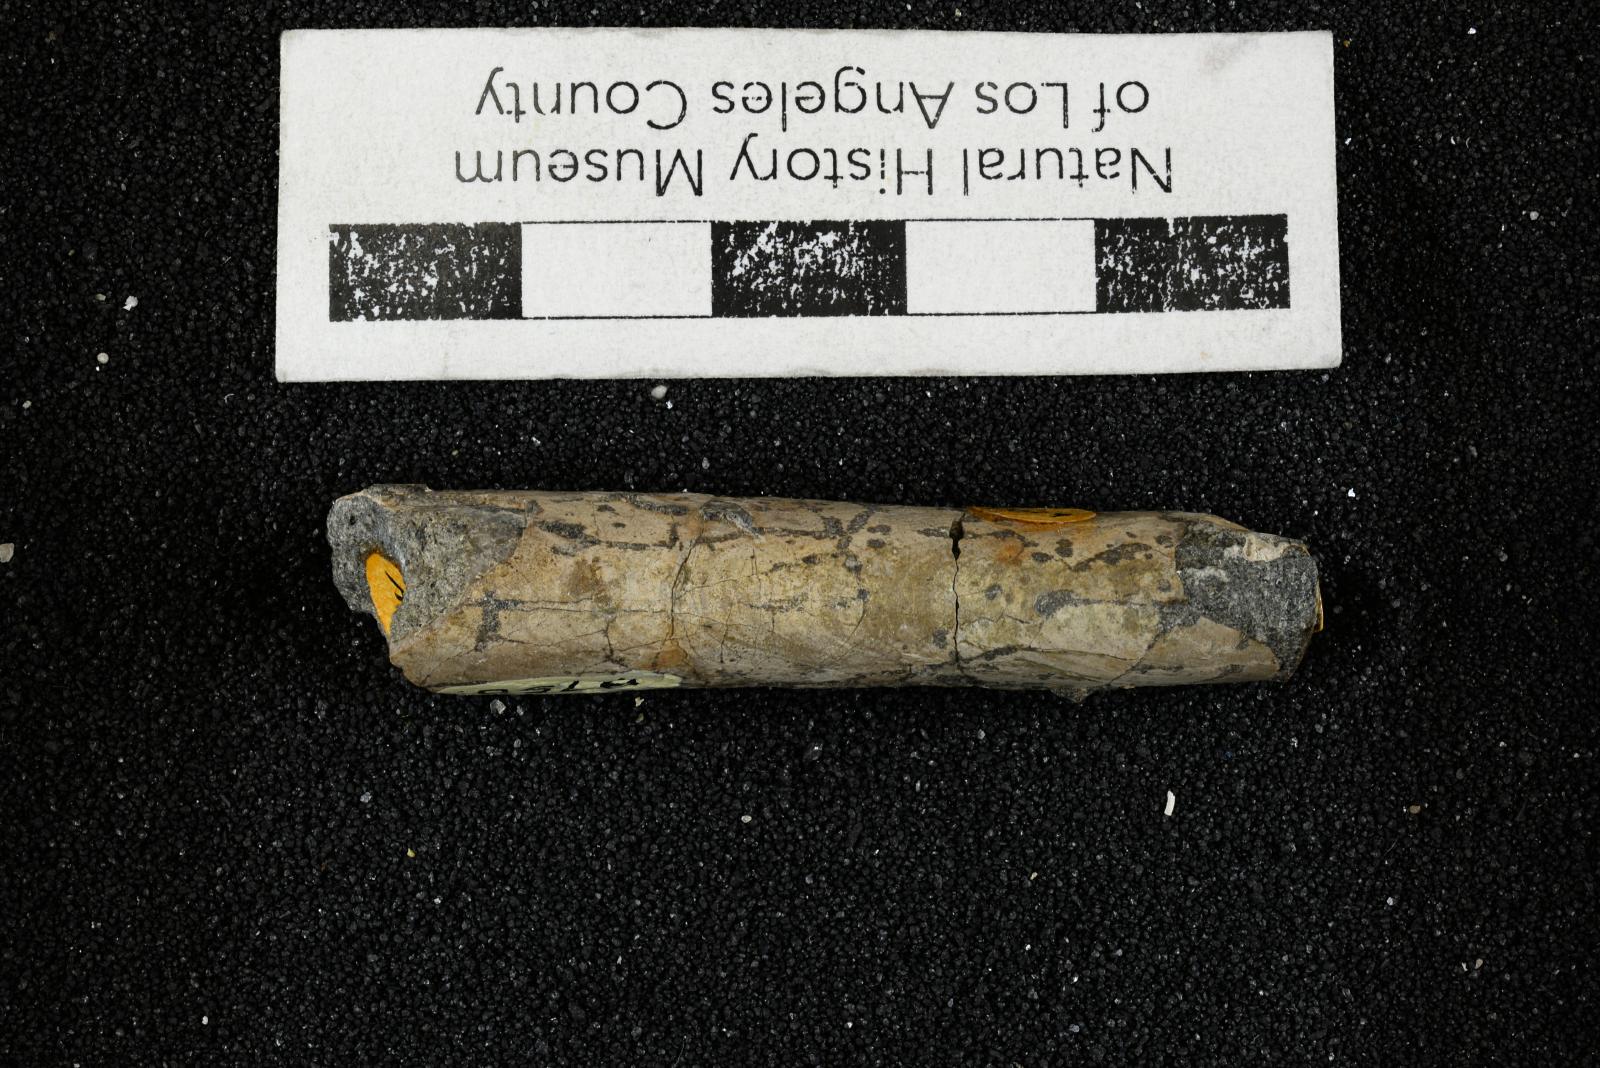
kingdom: Animalia
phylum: Mollusca
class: Cephalopoda
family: Baculitidae
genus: Baculites
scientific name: Baculites schencki
